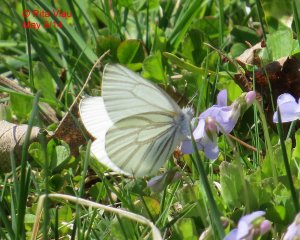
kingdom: Animalia
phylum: Arthropoda
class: Insecta
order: Lepidoptera
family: Pieridae
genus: Pieris
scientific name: Pieris oleracea
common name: Mustard White
